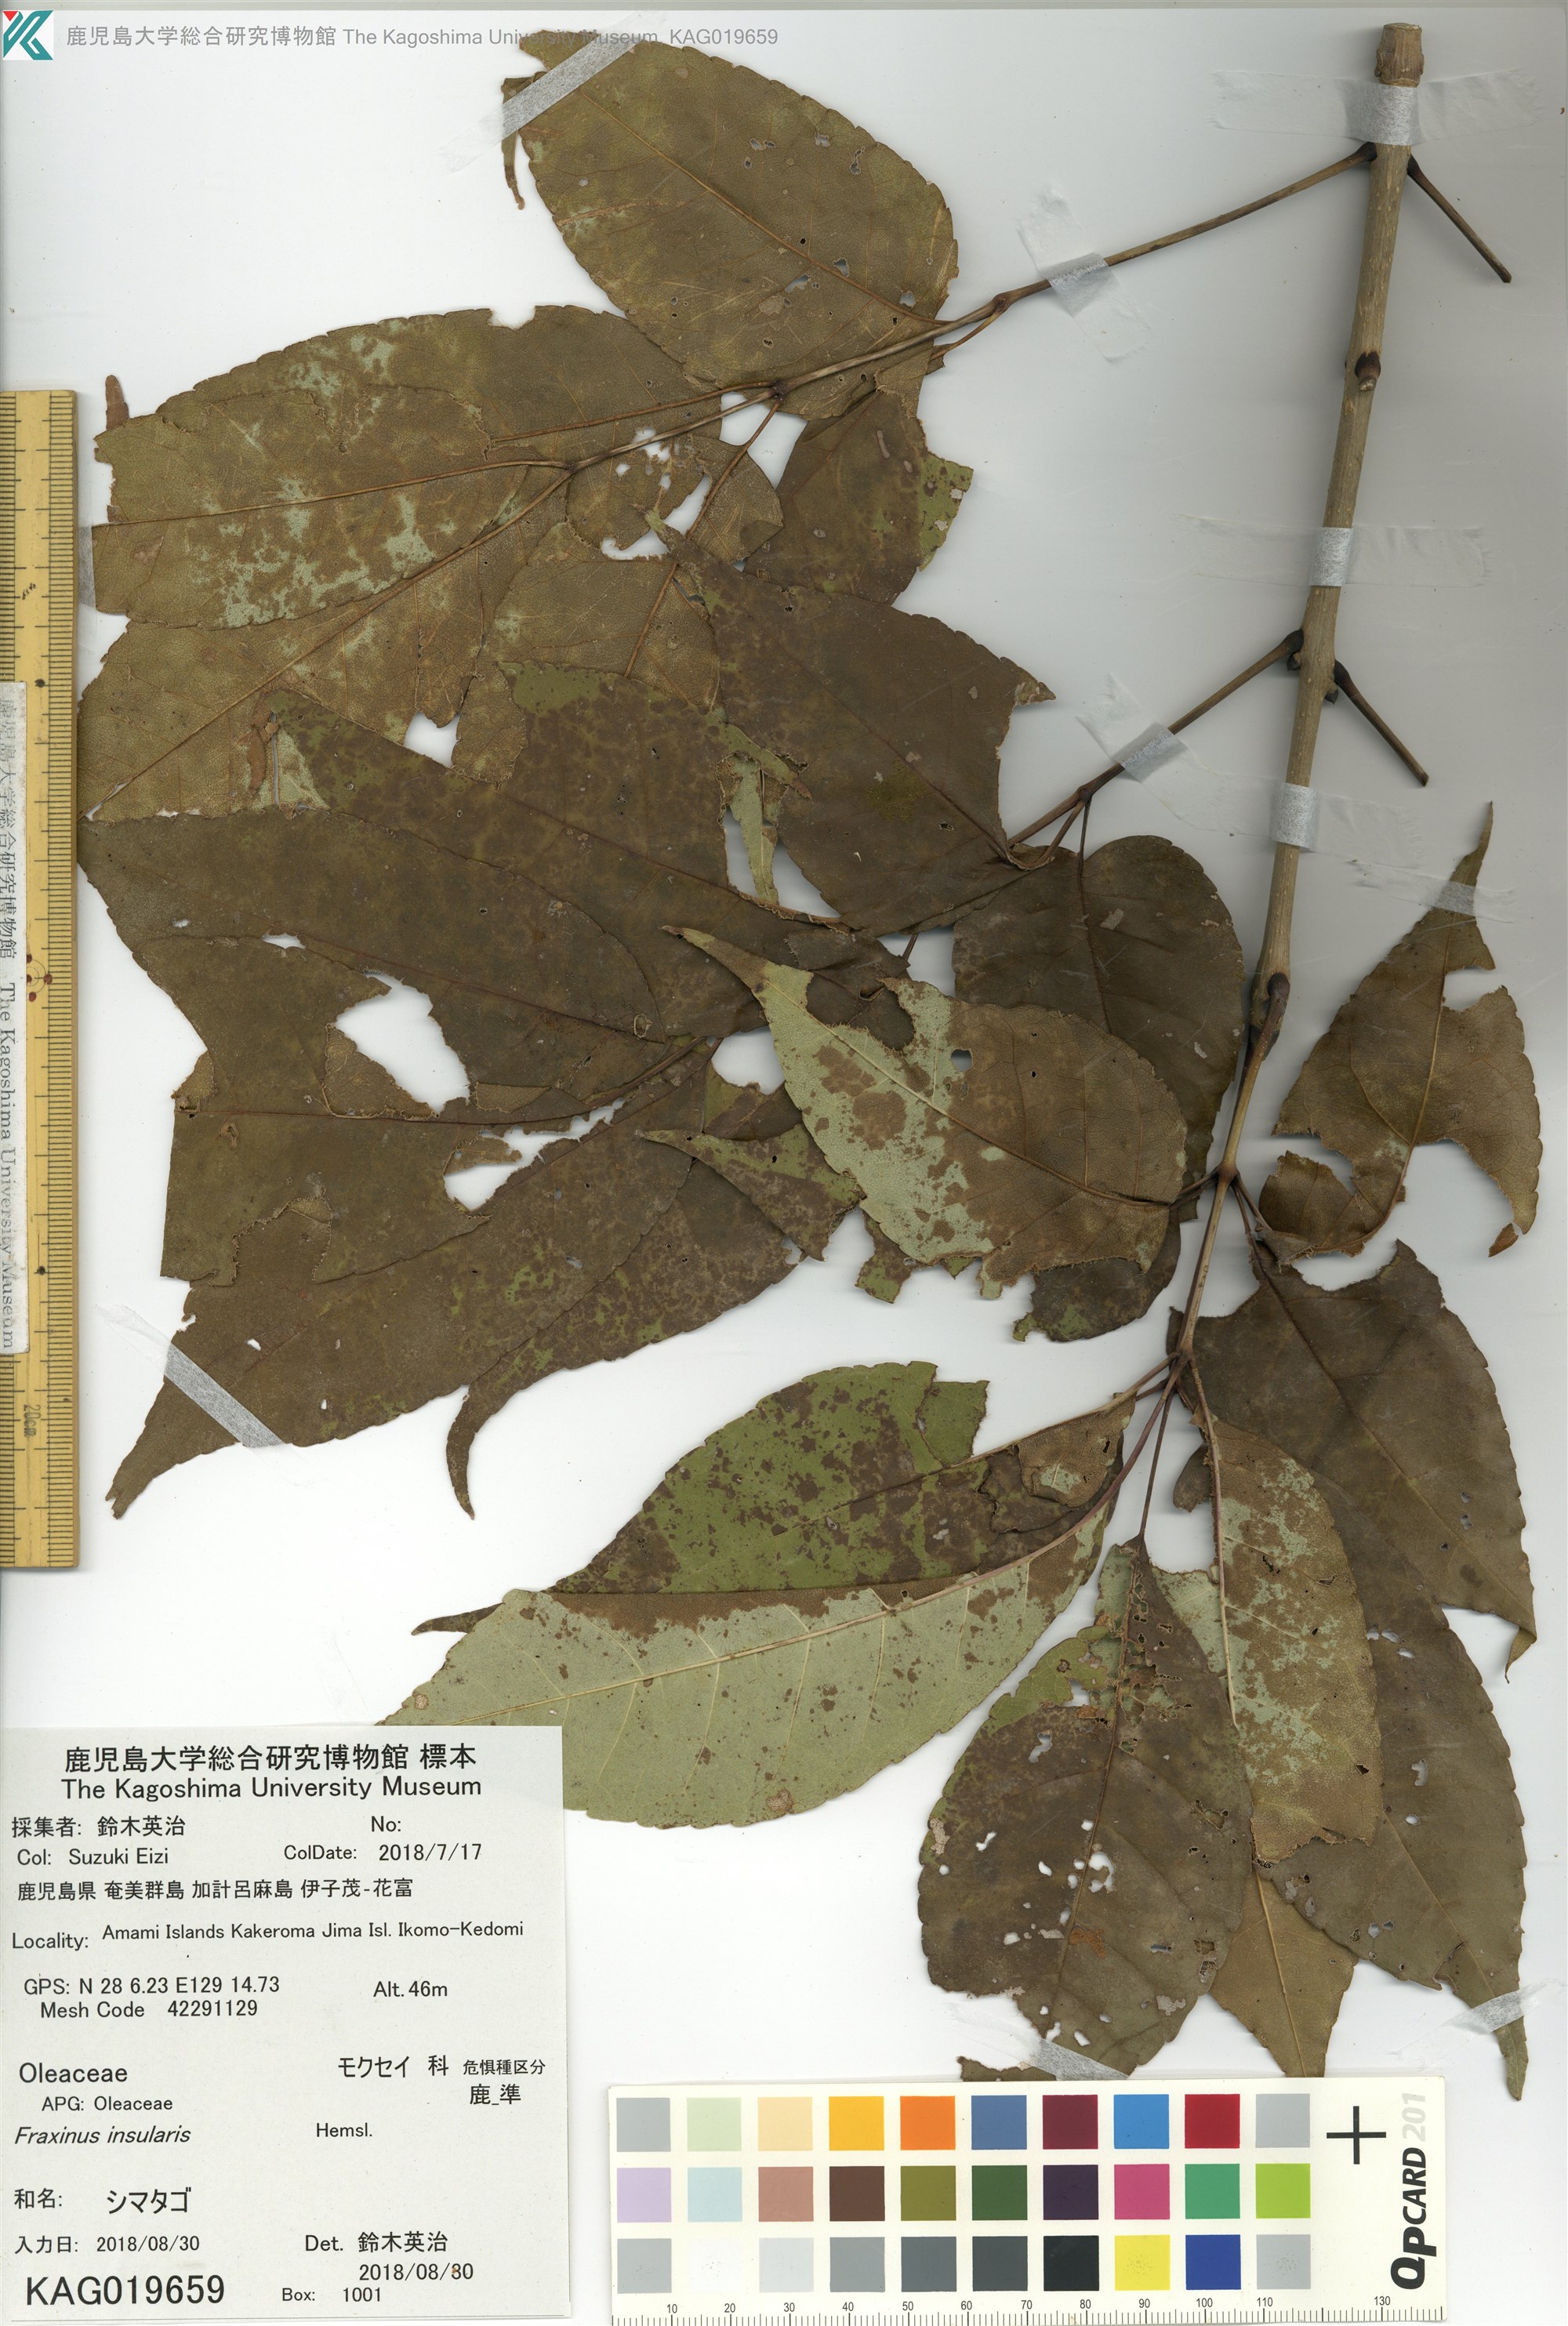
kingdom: Plantae
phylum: Tracheophyta
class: Magnoliopsida
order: Lamiales
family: Oleaceae
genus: Fraxinus
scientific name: Fraxinus insularis
